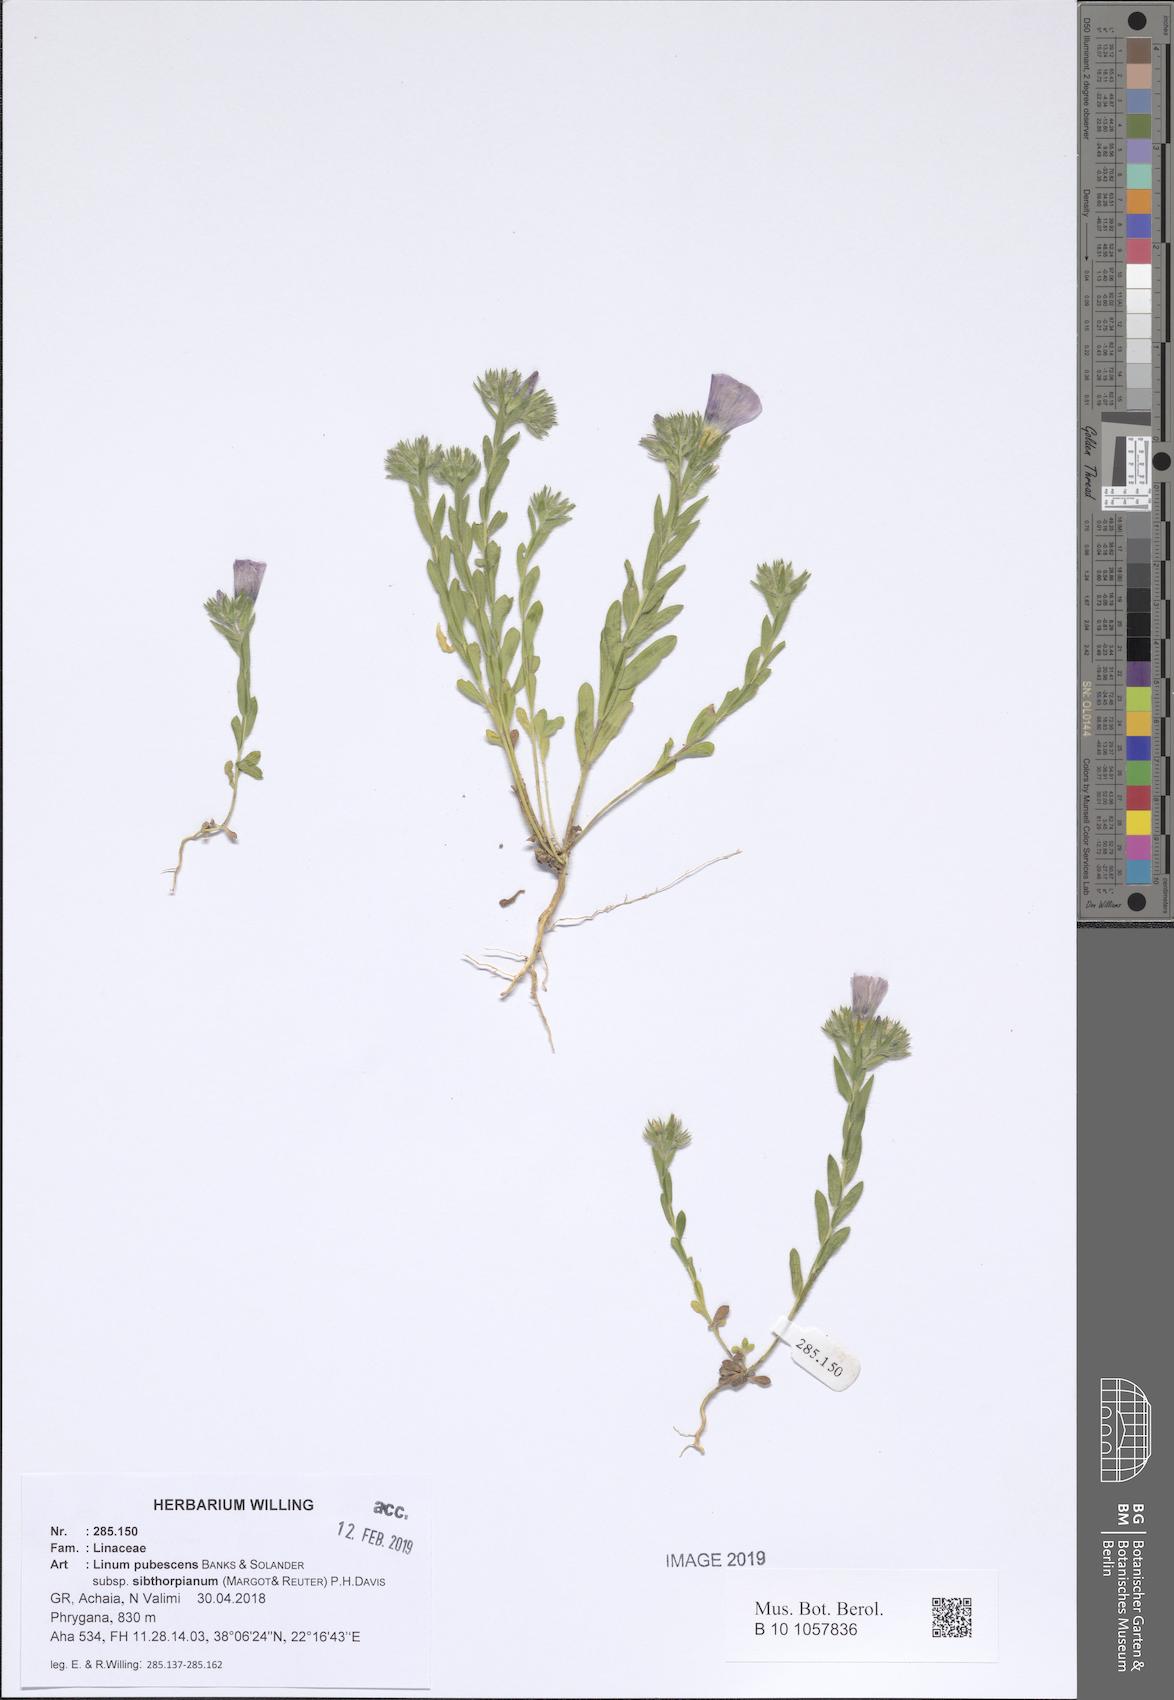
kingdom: Plantae
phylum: Tracheophyta
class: Magnoliopsida
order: Malpighiales
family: Linaceae
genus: Linum
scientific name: Linum pubescens
